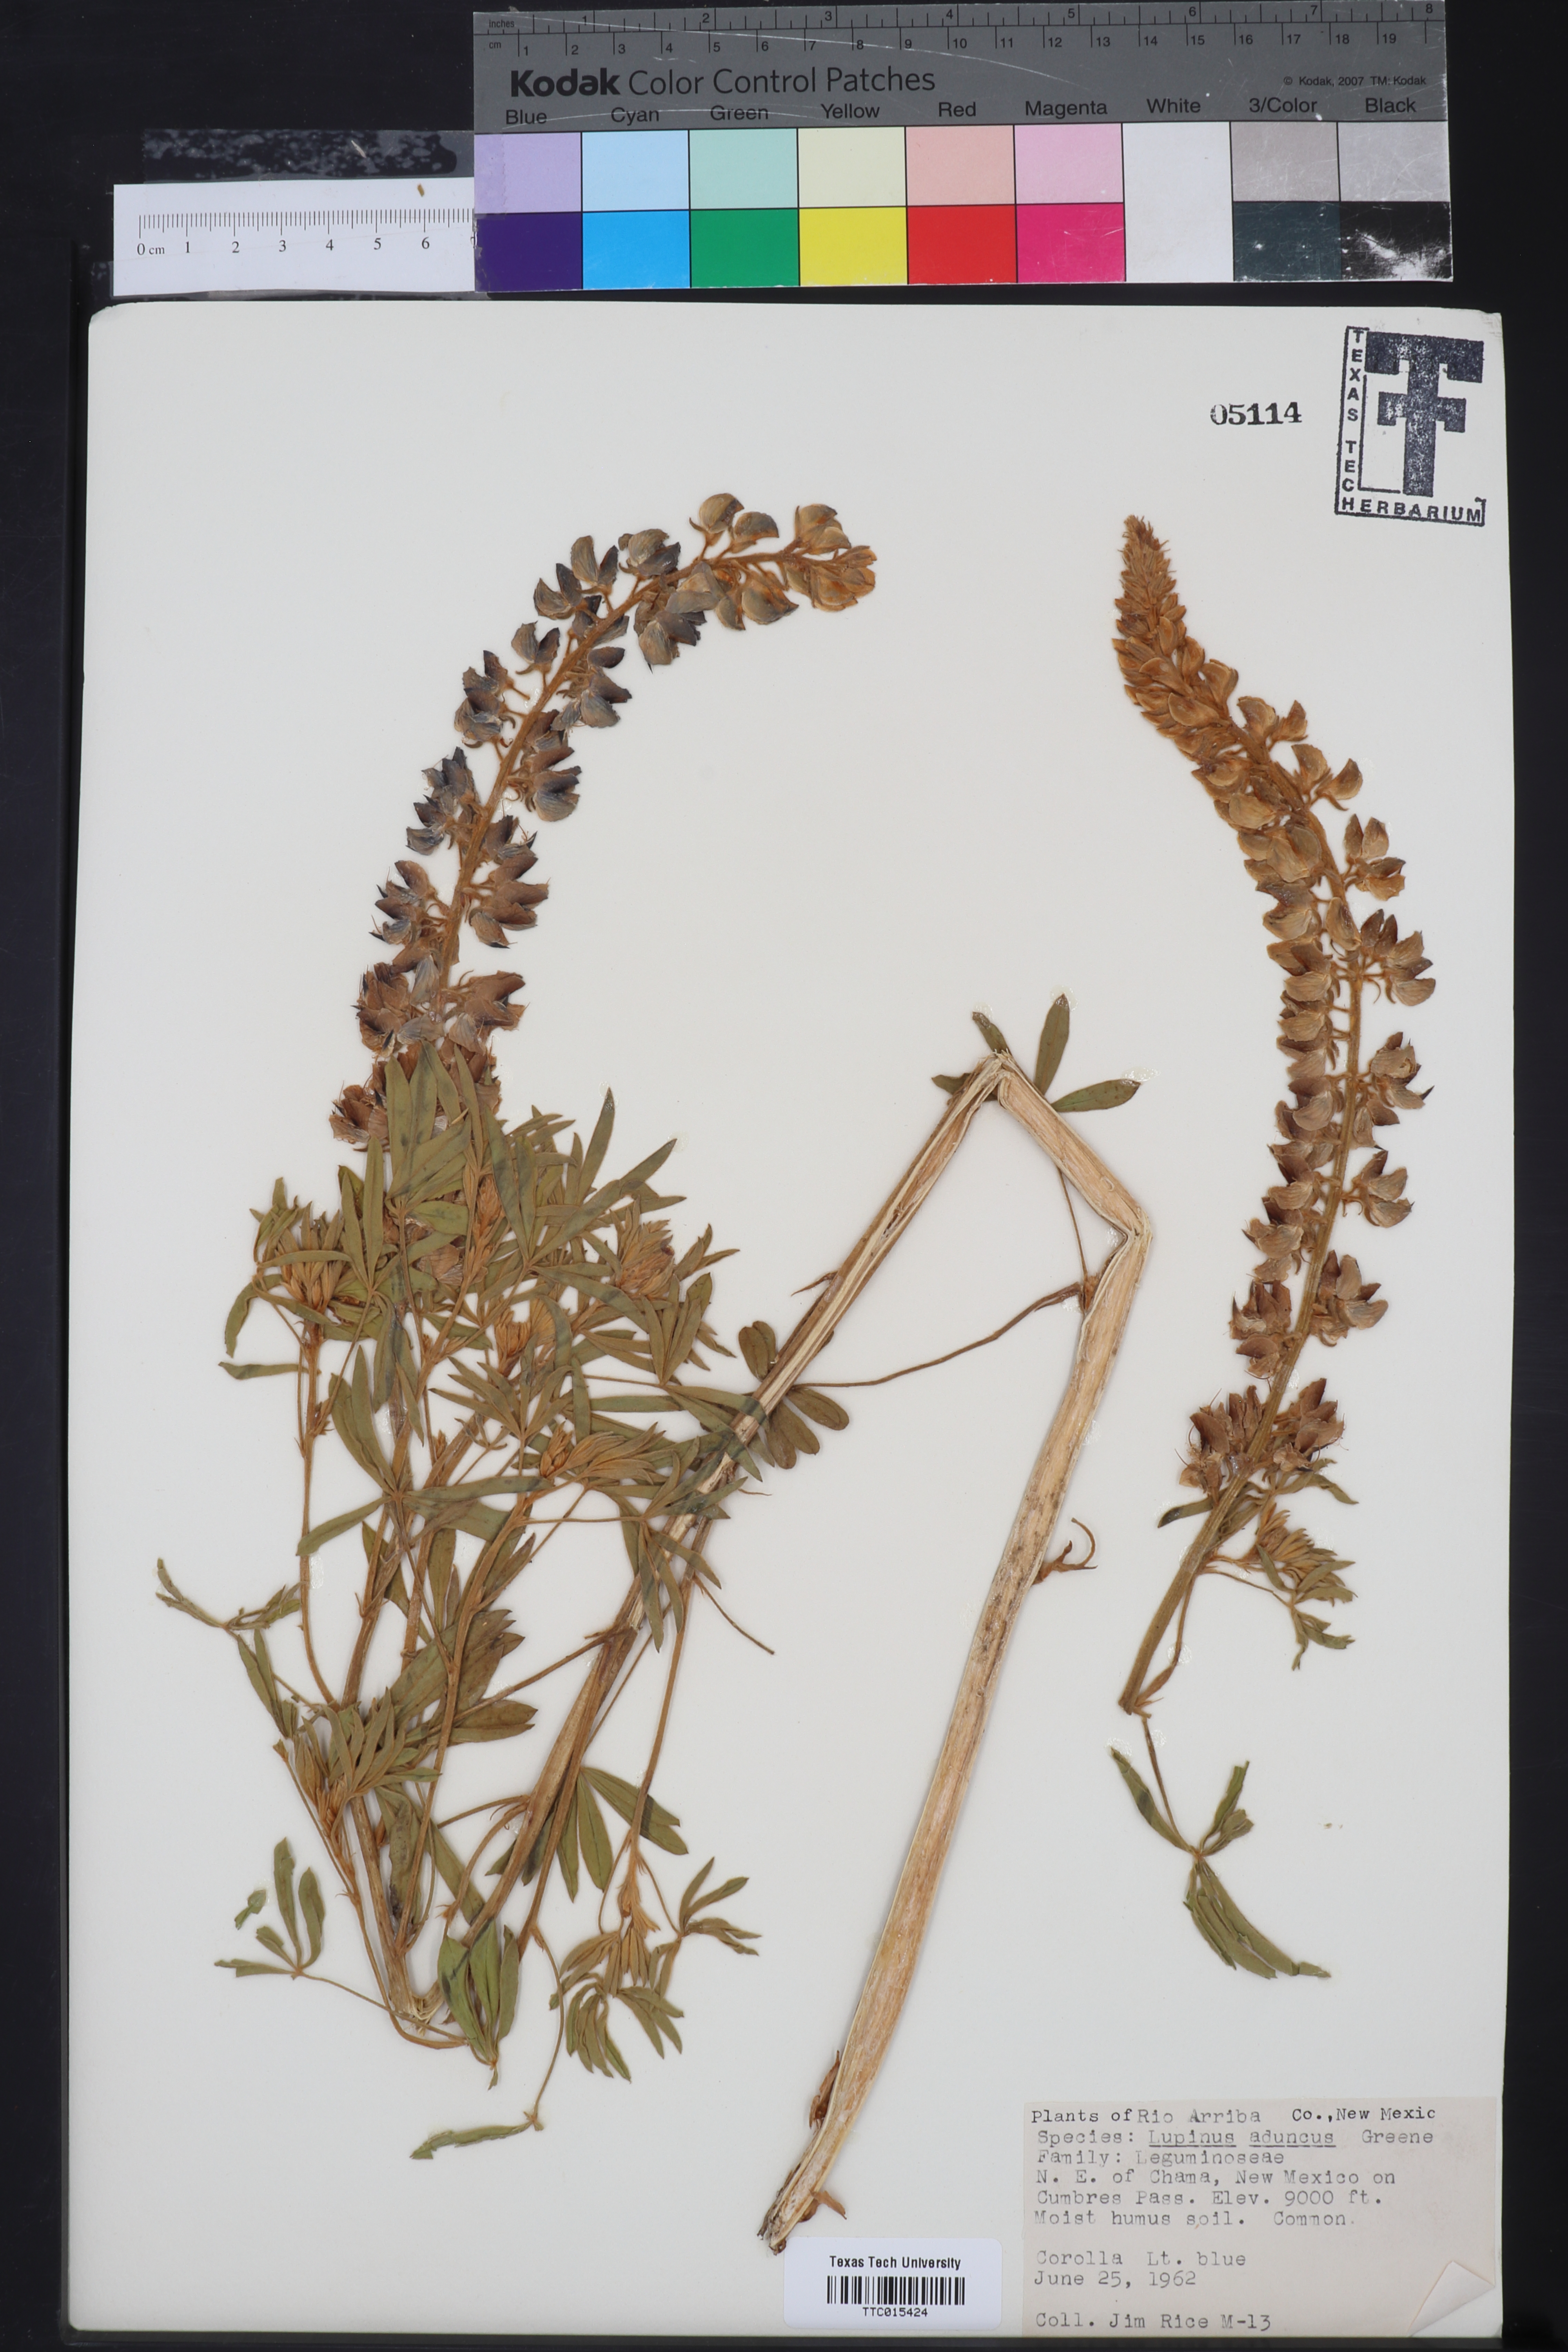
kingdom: Plantae
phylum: Tracheophyta
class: Magnoliopsida
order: Fabales
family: Fabaceae
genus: Lupinus
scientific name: Lupinus caudatus
